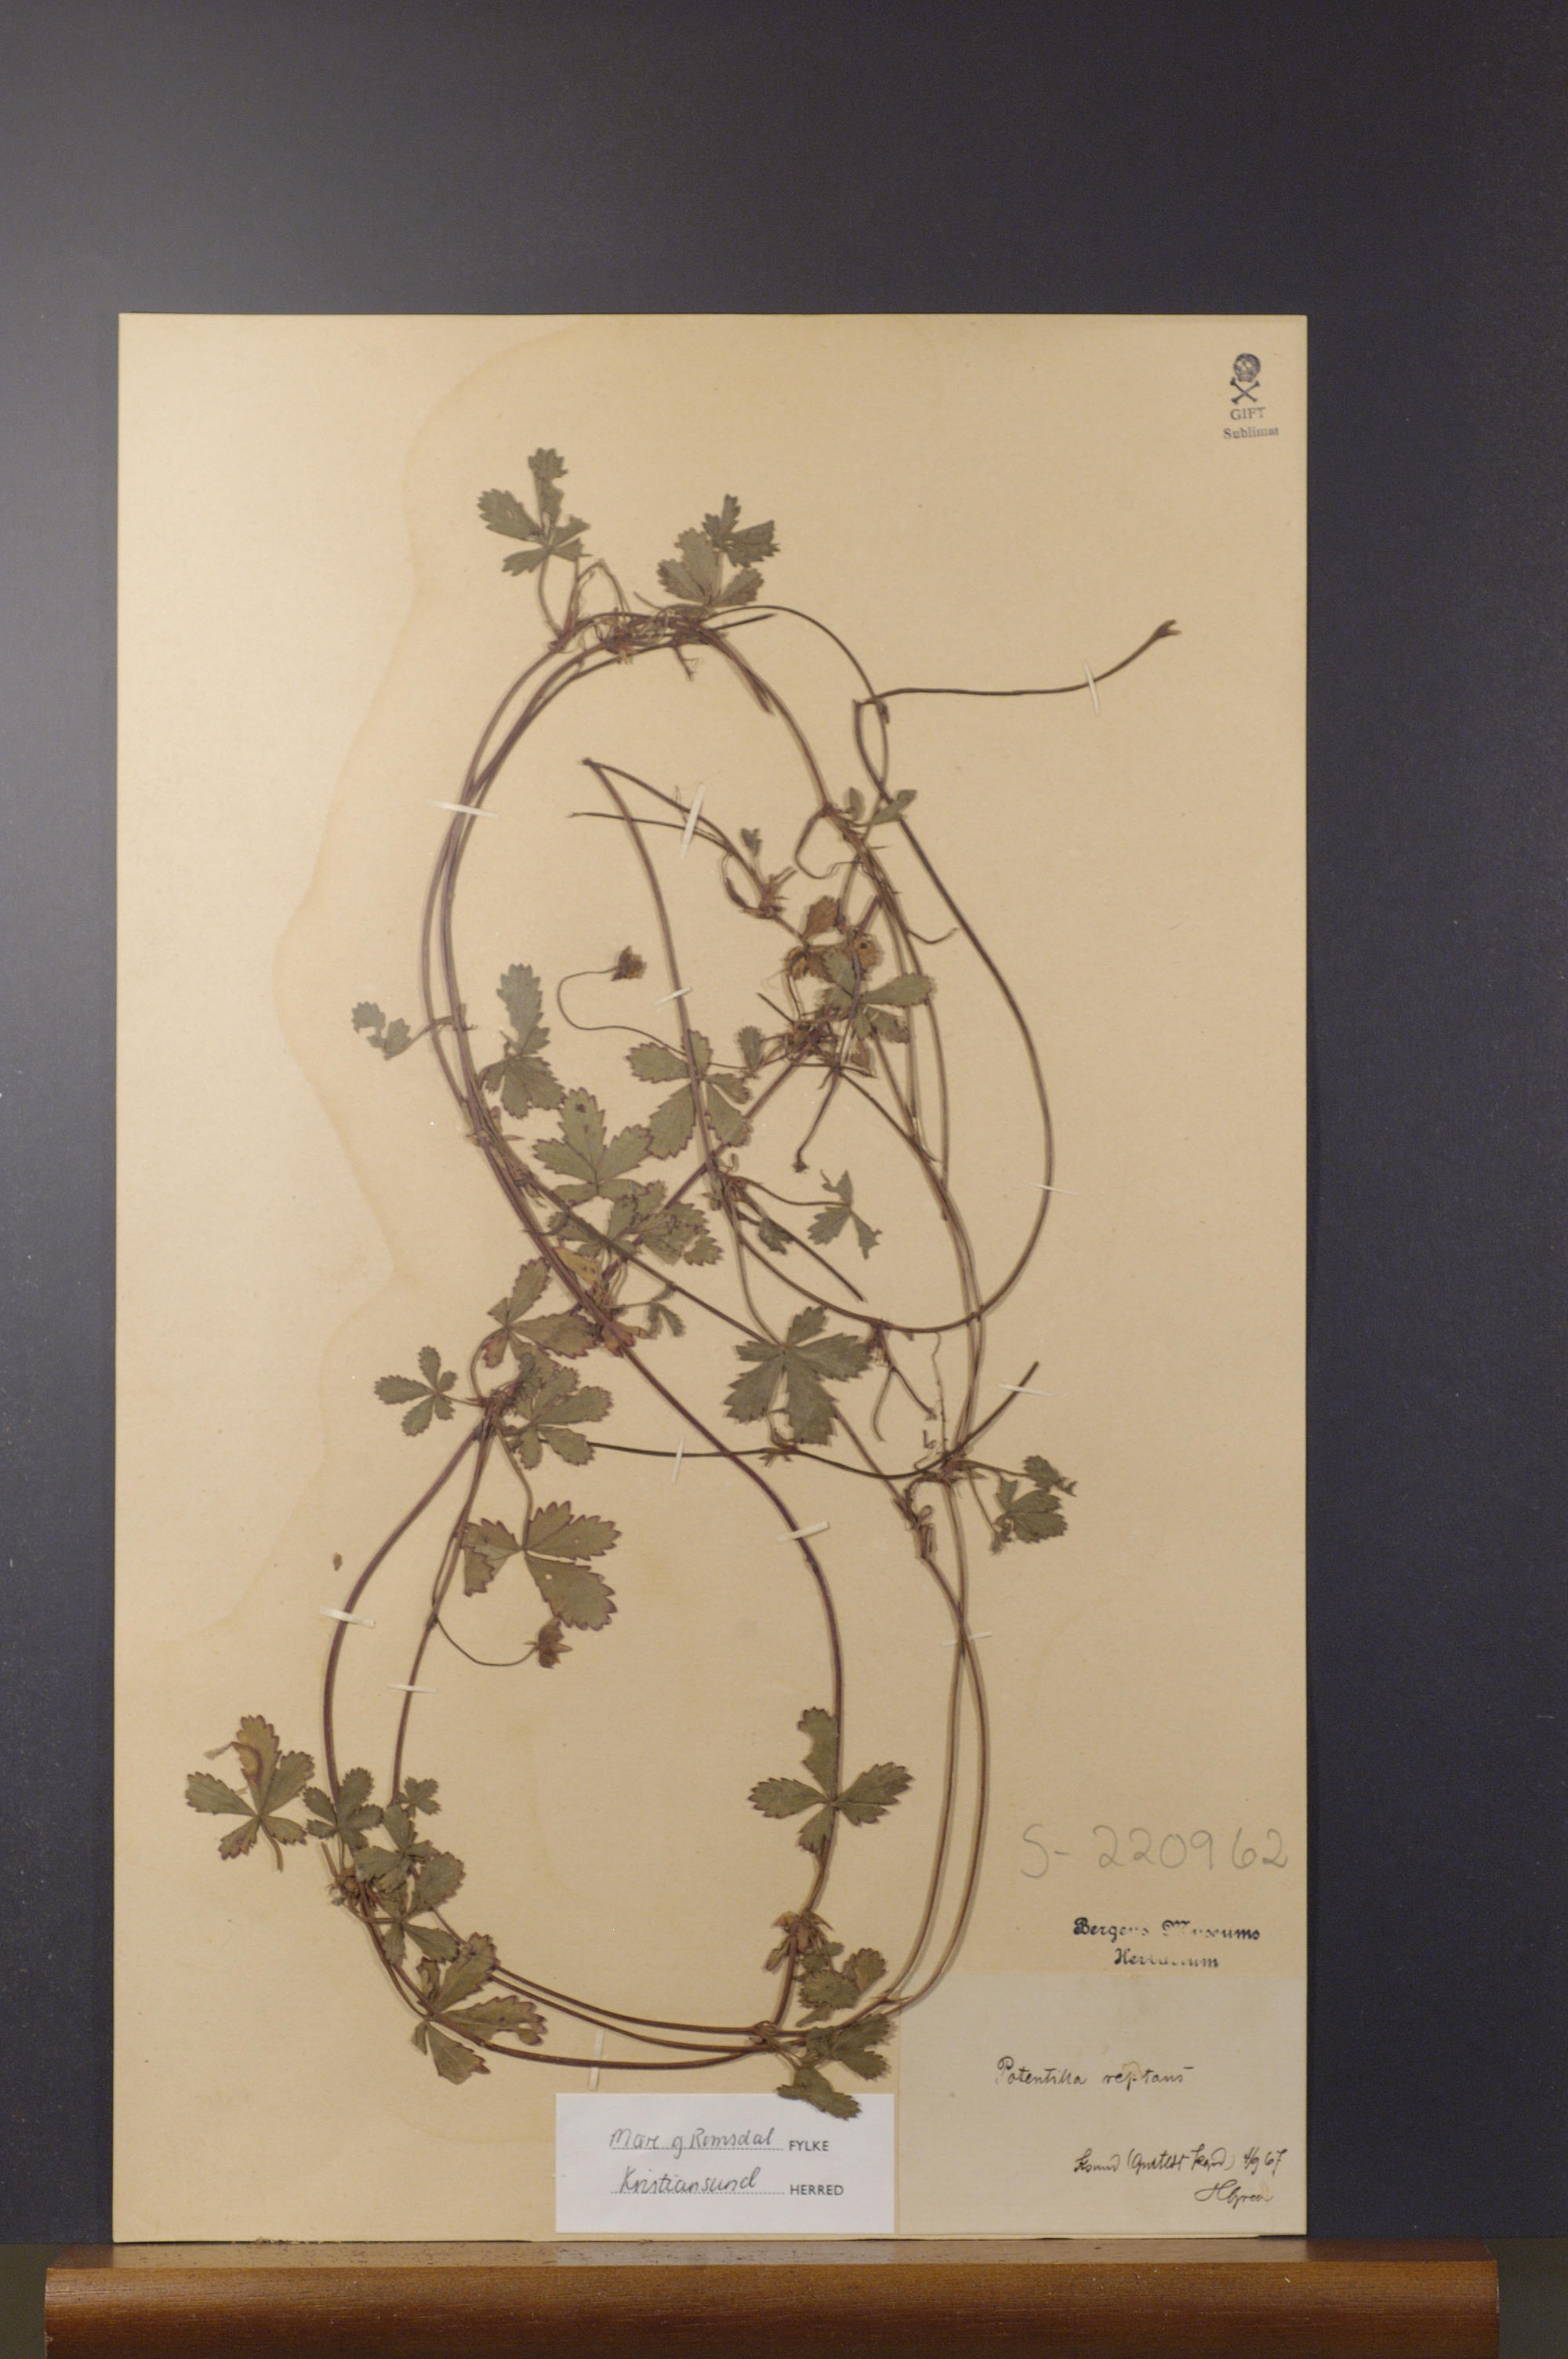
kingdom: Plantae
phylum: Tracheophyta
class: Magnoliopsida
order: Rosales
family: Rosaceae
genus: Potentilla
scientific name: Potentilla reptans
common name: Creeping cinquefoil
